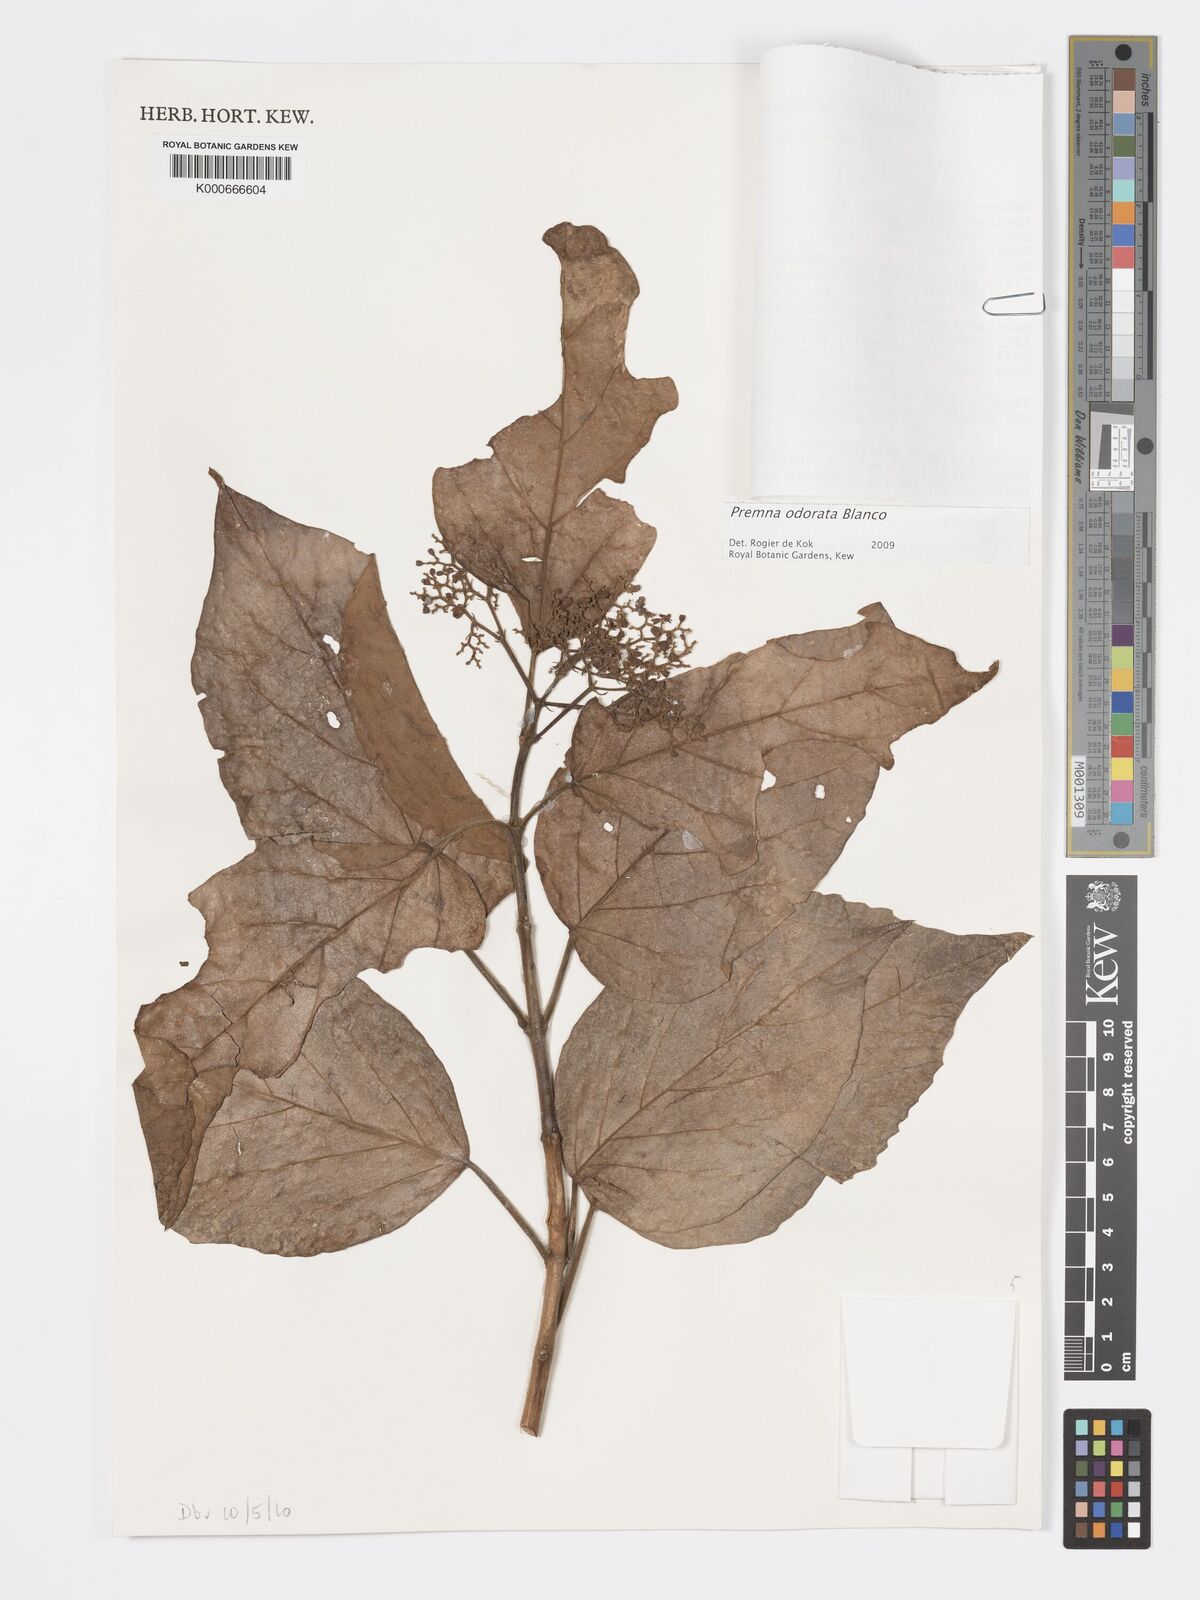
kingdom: Plantae
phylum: Tracheophyta
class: Magnoliopsida
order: Lamiales
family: Lamiaceae
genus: Premna
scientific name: Premna odorata
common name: Fragrant premna
